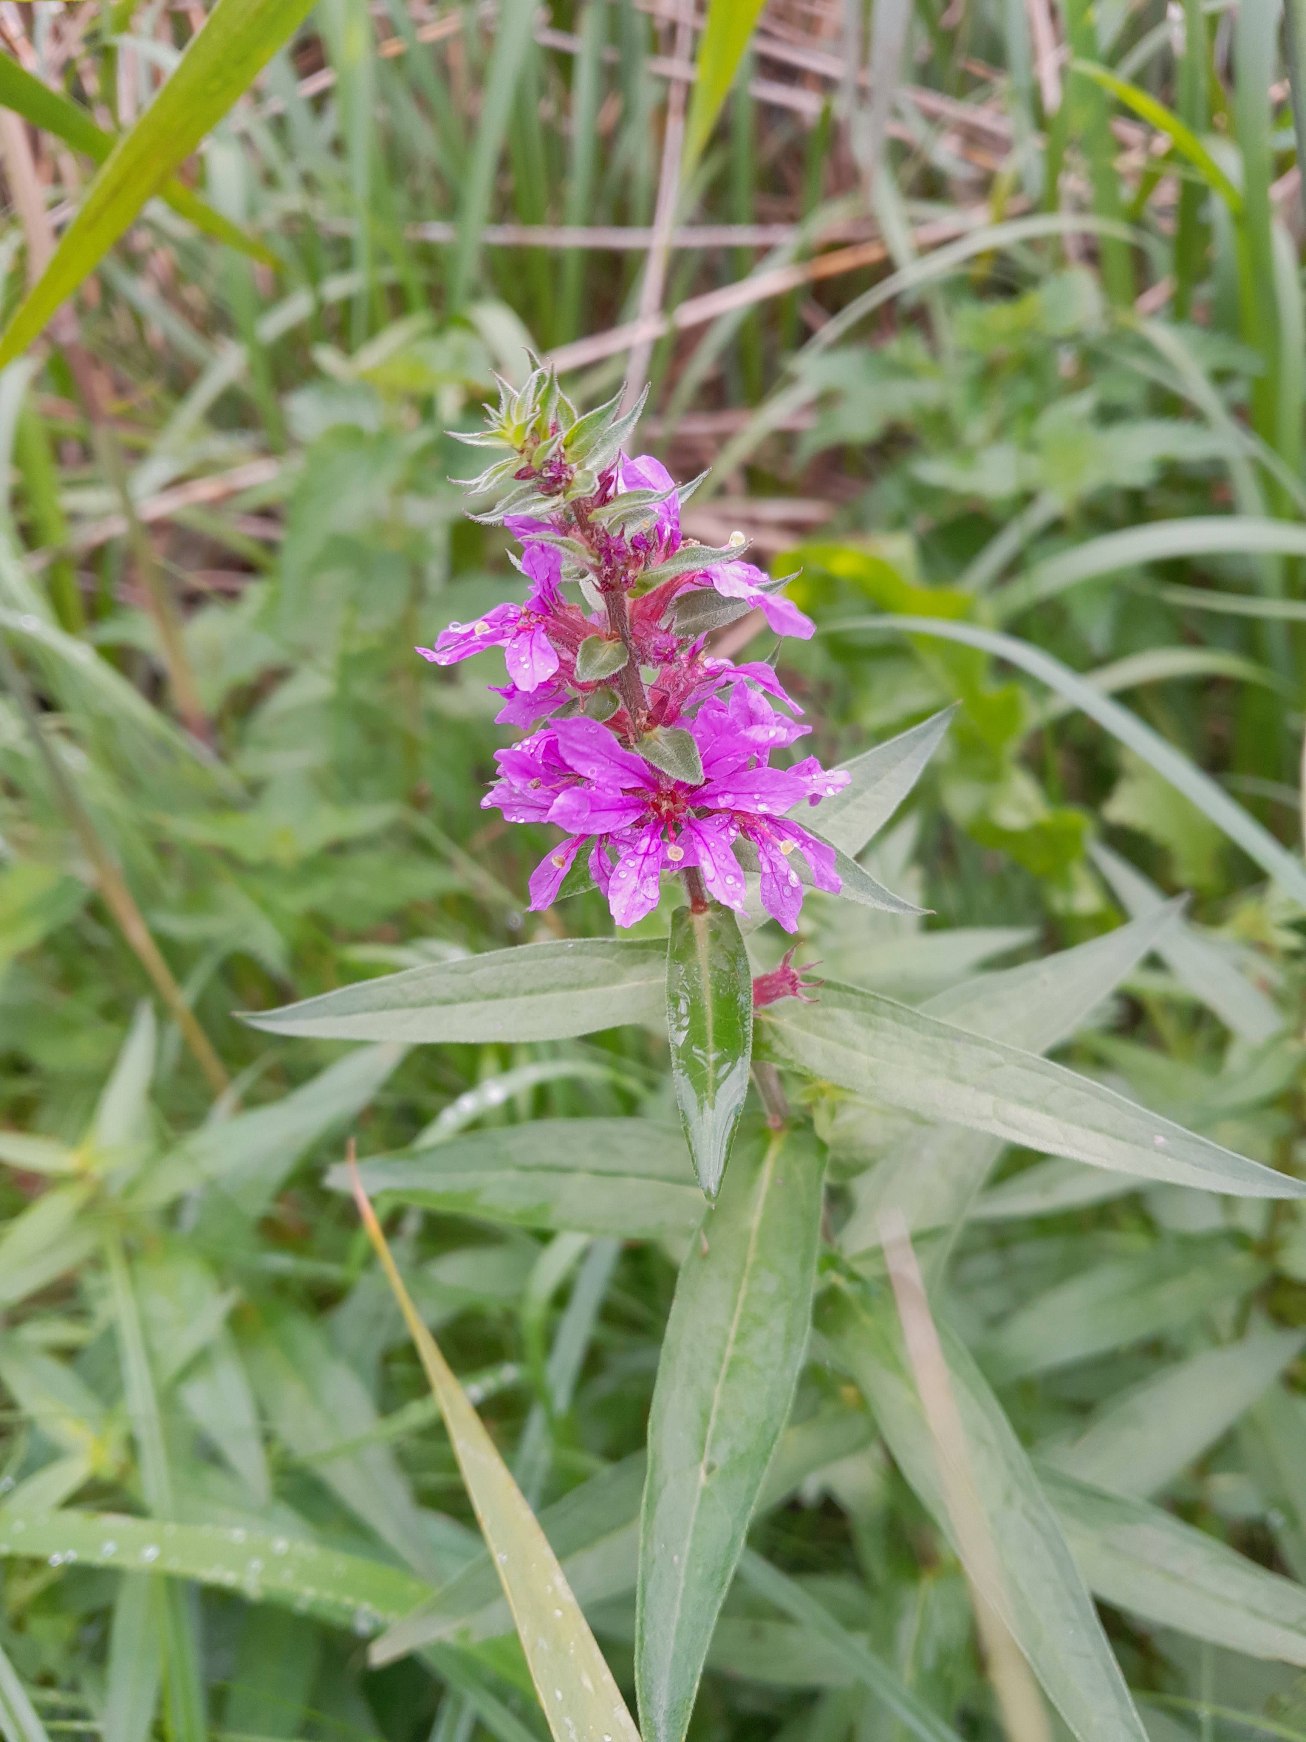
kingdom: Plantae
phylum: Tracheophyta
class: Magnoliopsida
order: Myrtales
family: Lythraceae
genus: Lythrum
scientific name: Lythrum salicaria
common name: Kattehale
